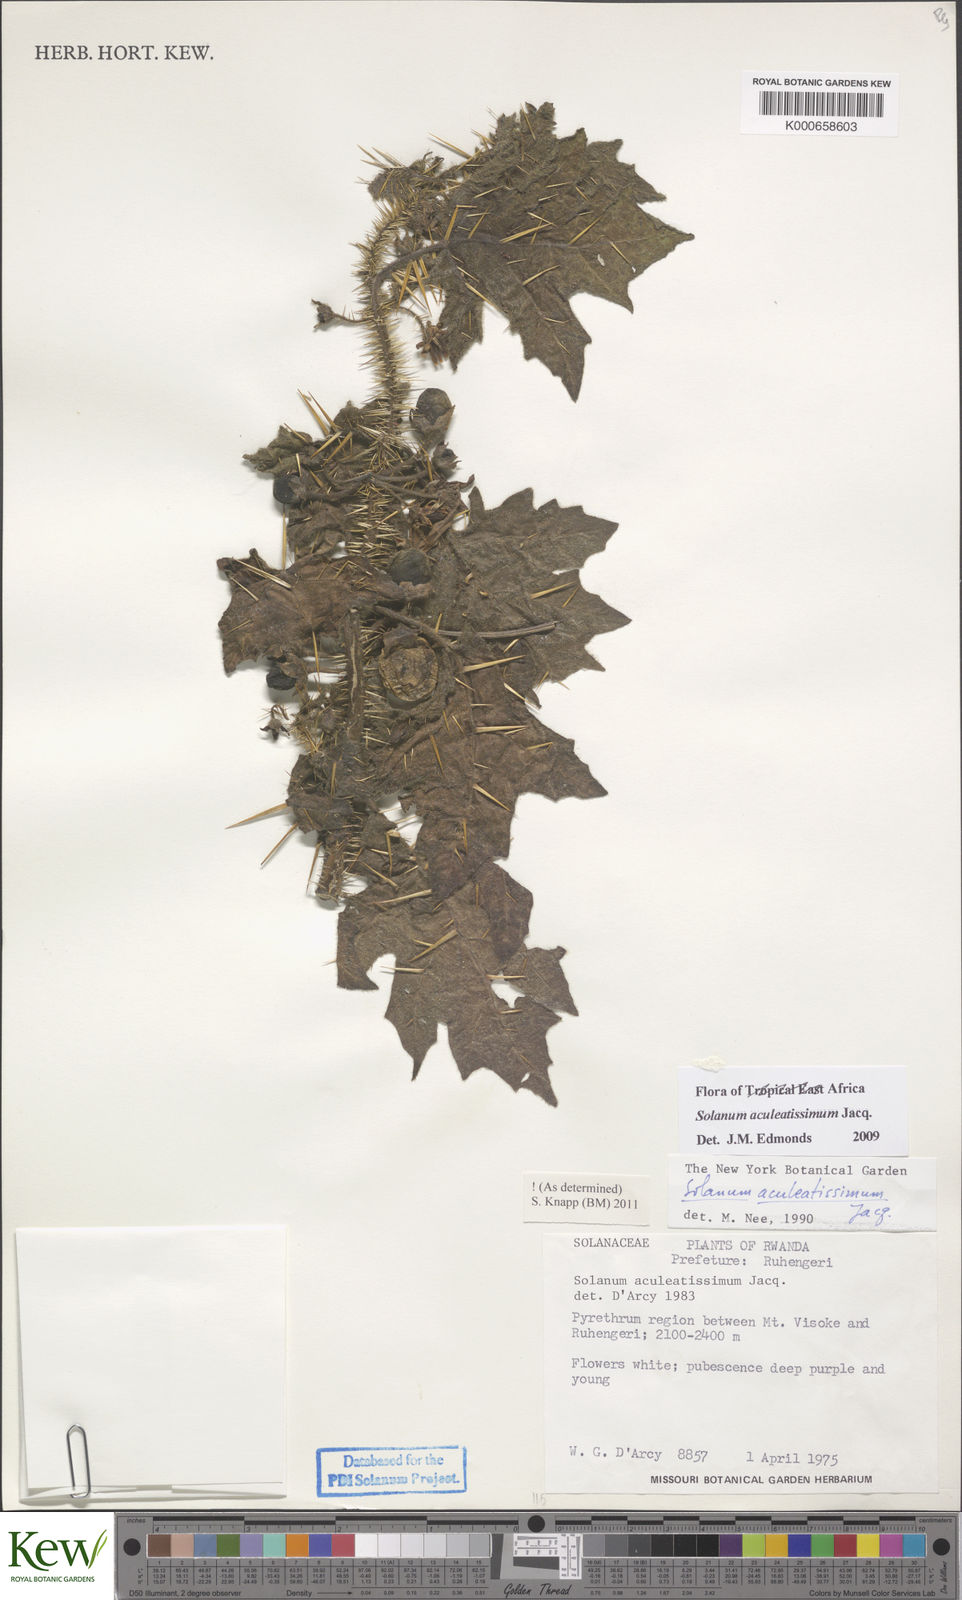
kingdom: Plantae
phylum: Tracheophyta
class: Magnoliopsida
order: Solanales
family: Solanaceae
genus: Solanum
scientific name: Solanum aculeatissimum
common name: Dutch eggplant
